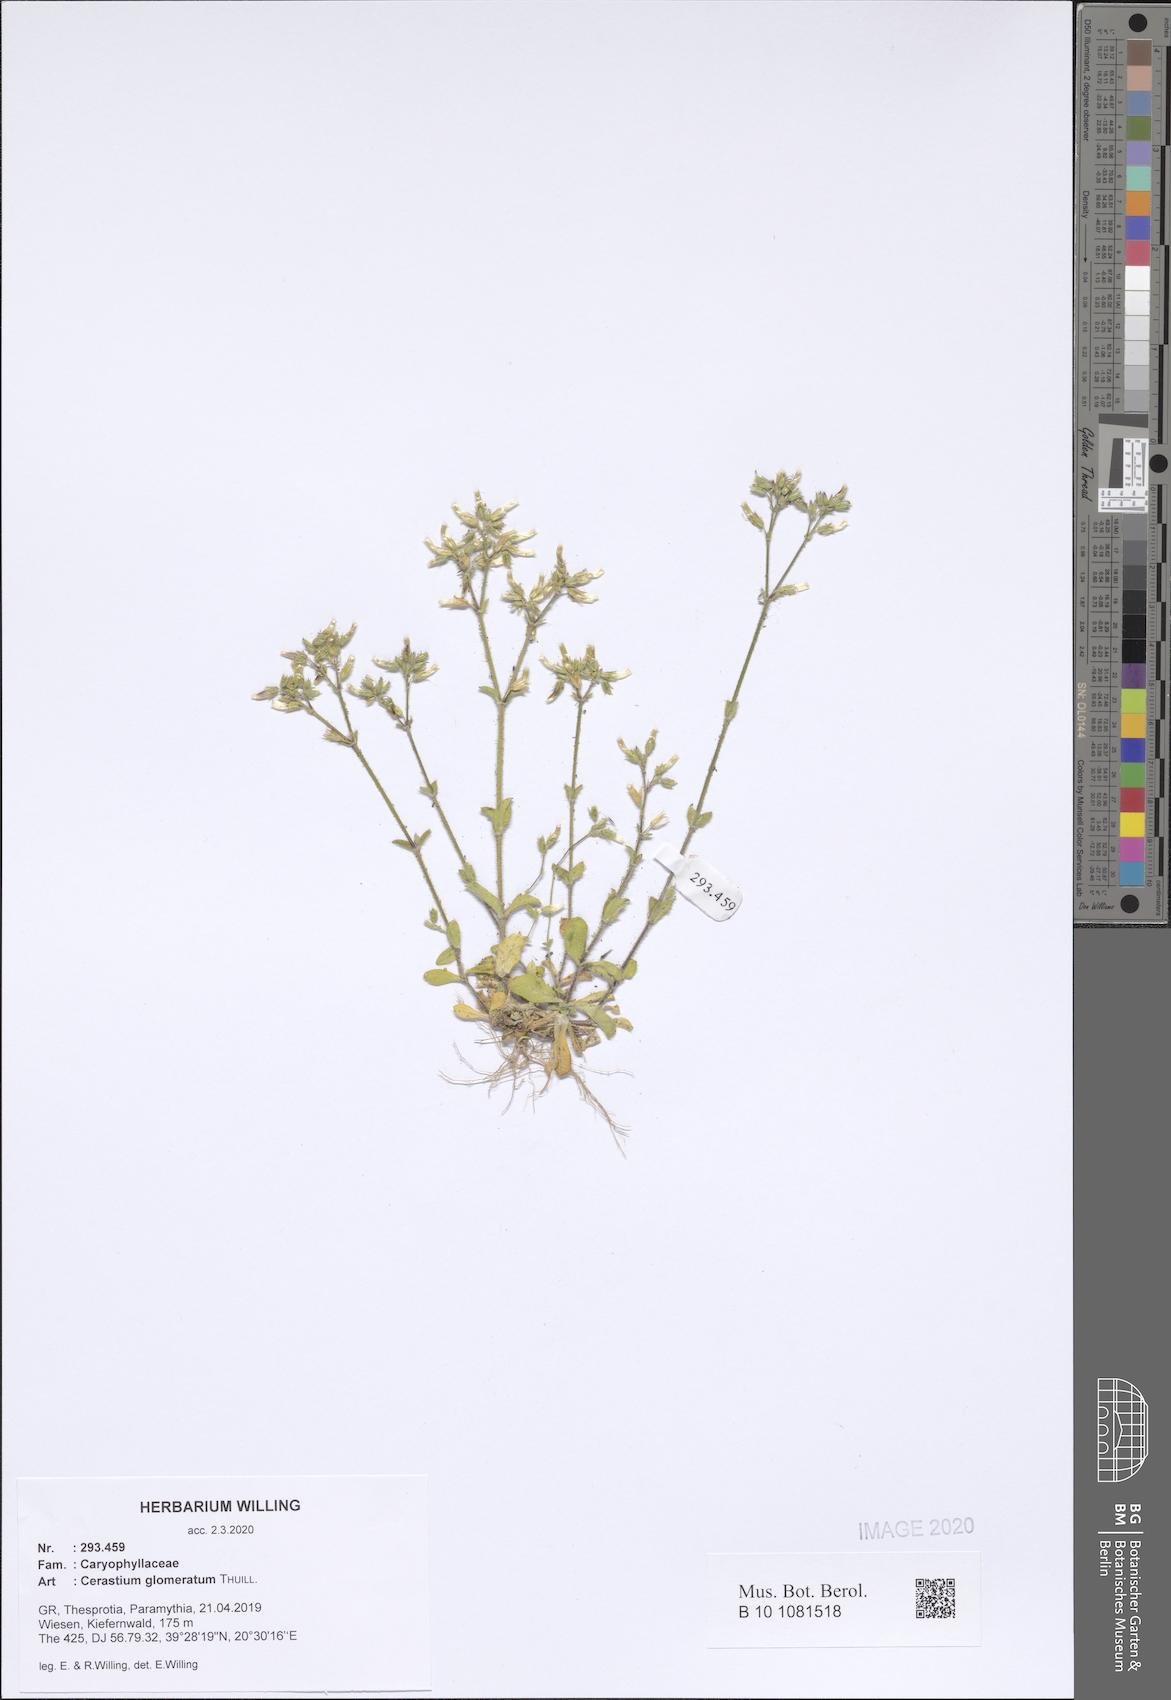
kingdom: Plantae
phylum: Tracheophyta
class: Magnoliopsida
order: Caryophyllales
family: Caryophyllaceae
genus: Cerastium
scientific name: Cerastium glomeratum
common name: Sticky chickweed
